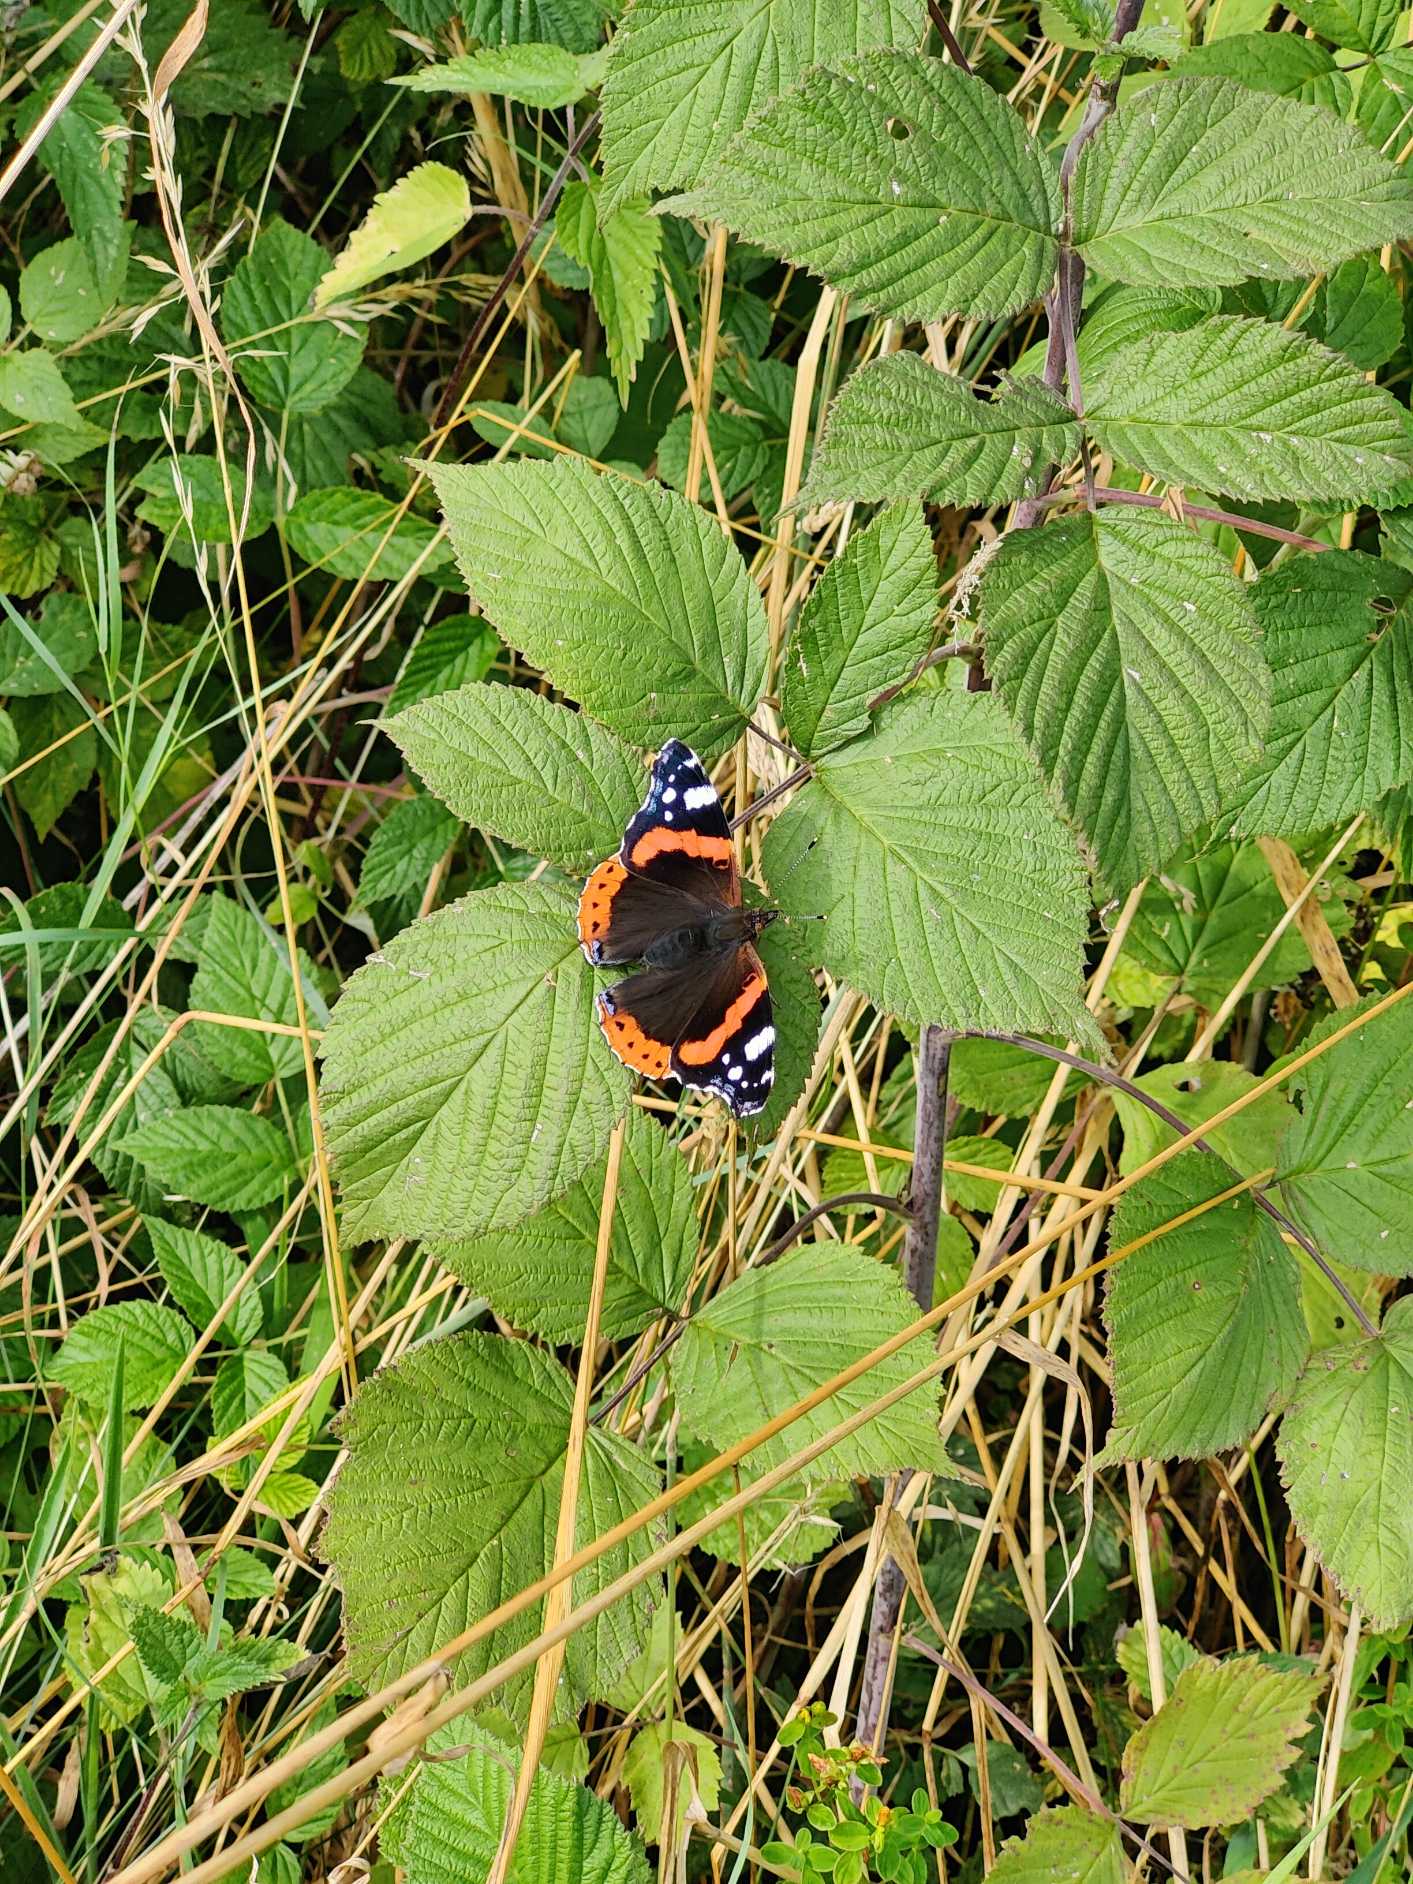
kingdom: Animalia
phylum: Arthropoda
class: Insecta
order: Lepidoptera
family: Nymphalidae
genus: Vanessa
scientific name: Vanessa atalanta
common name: Admiral
